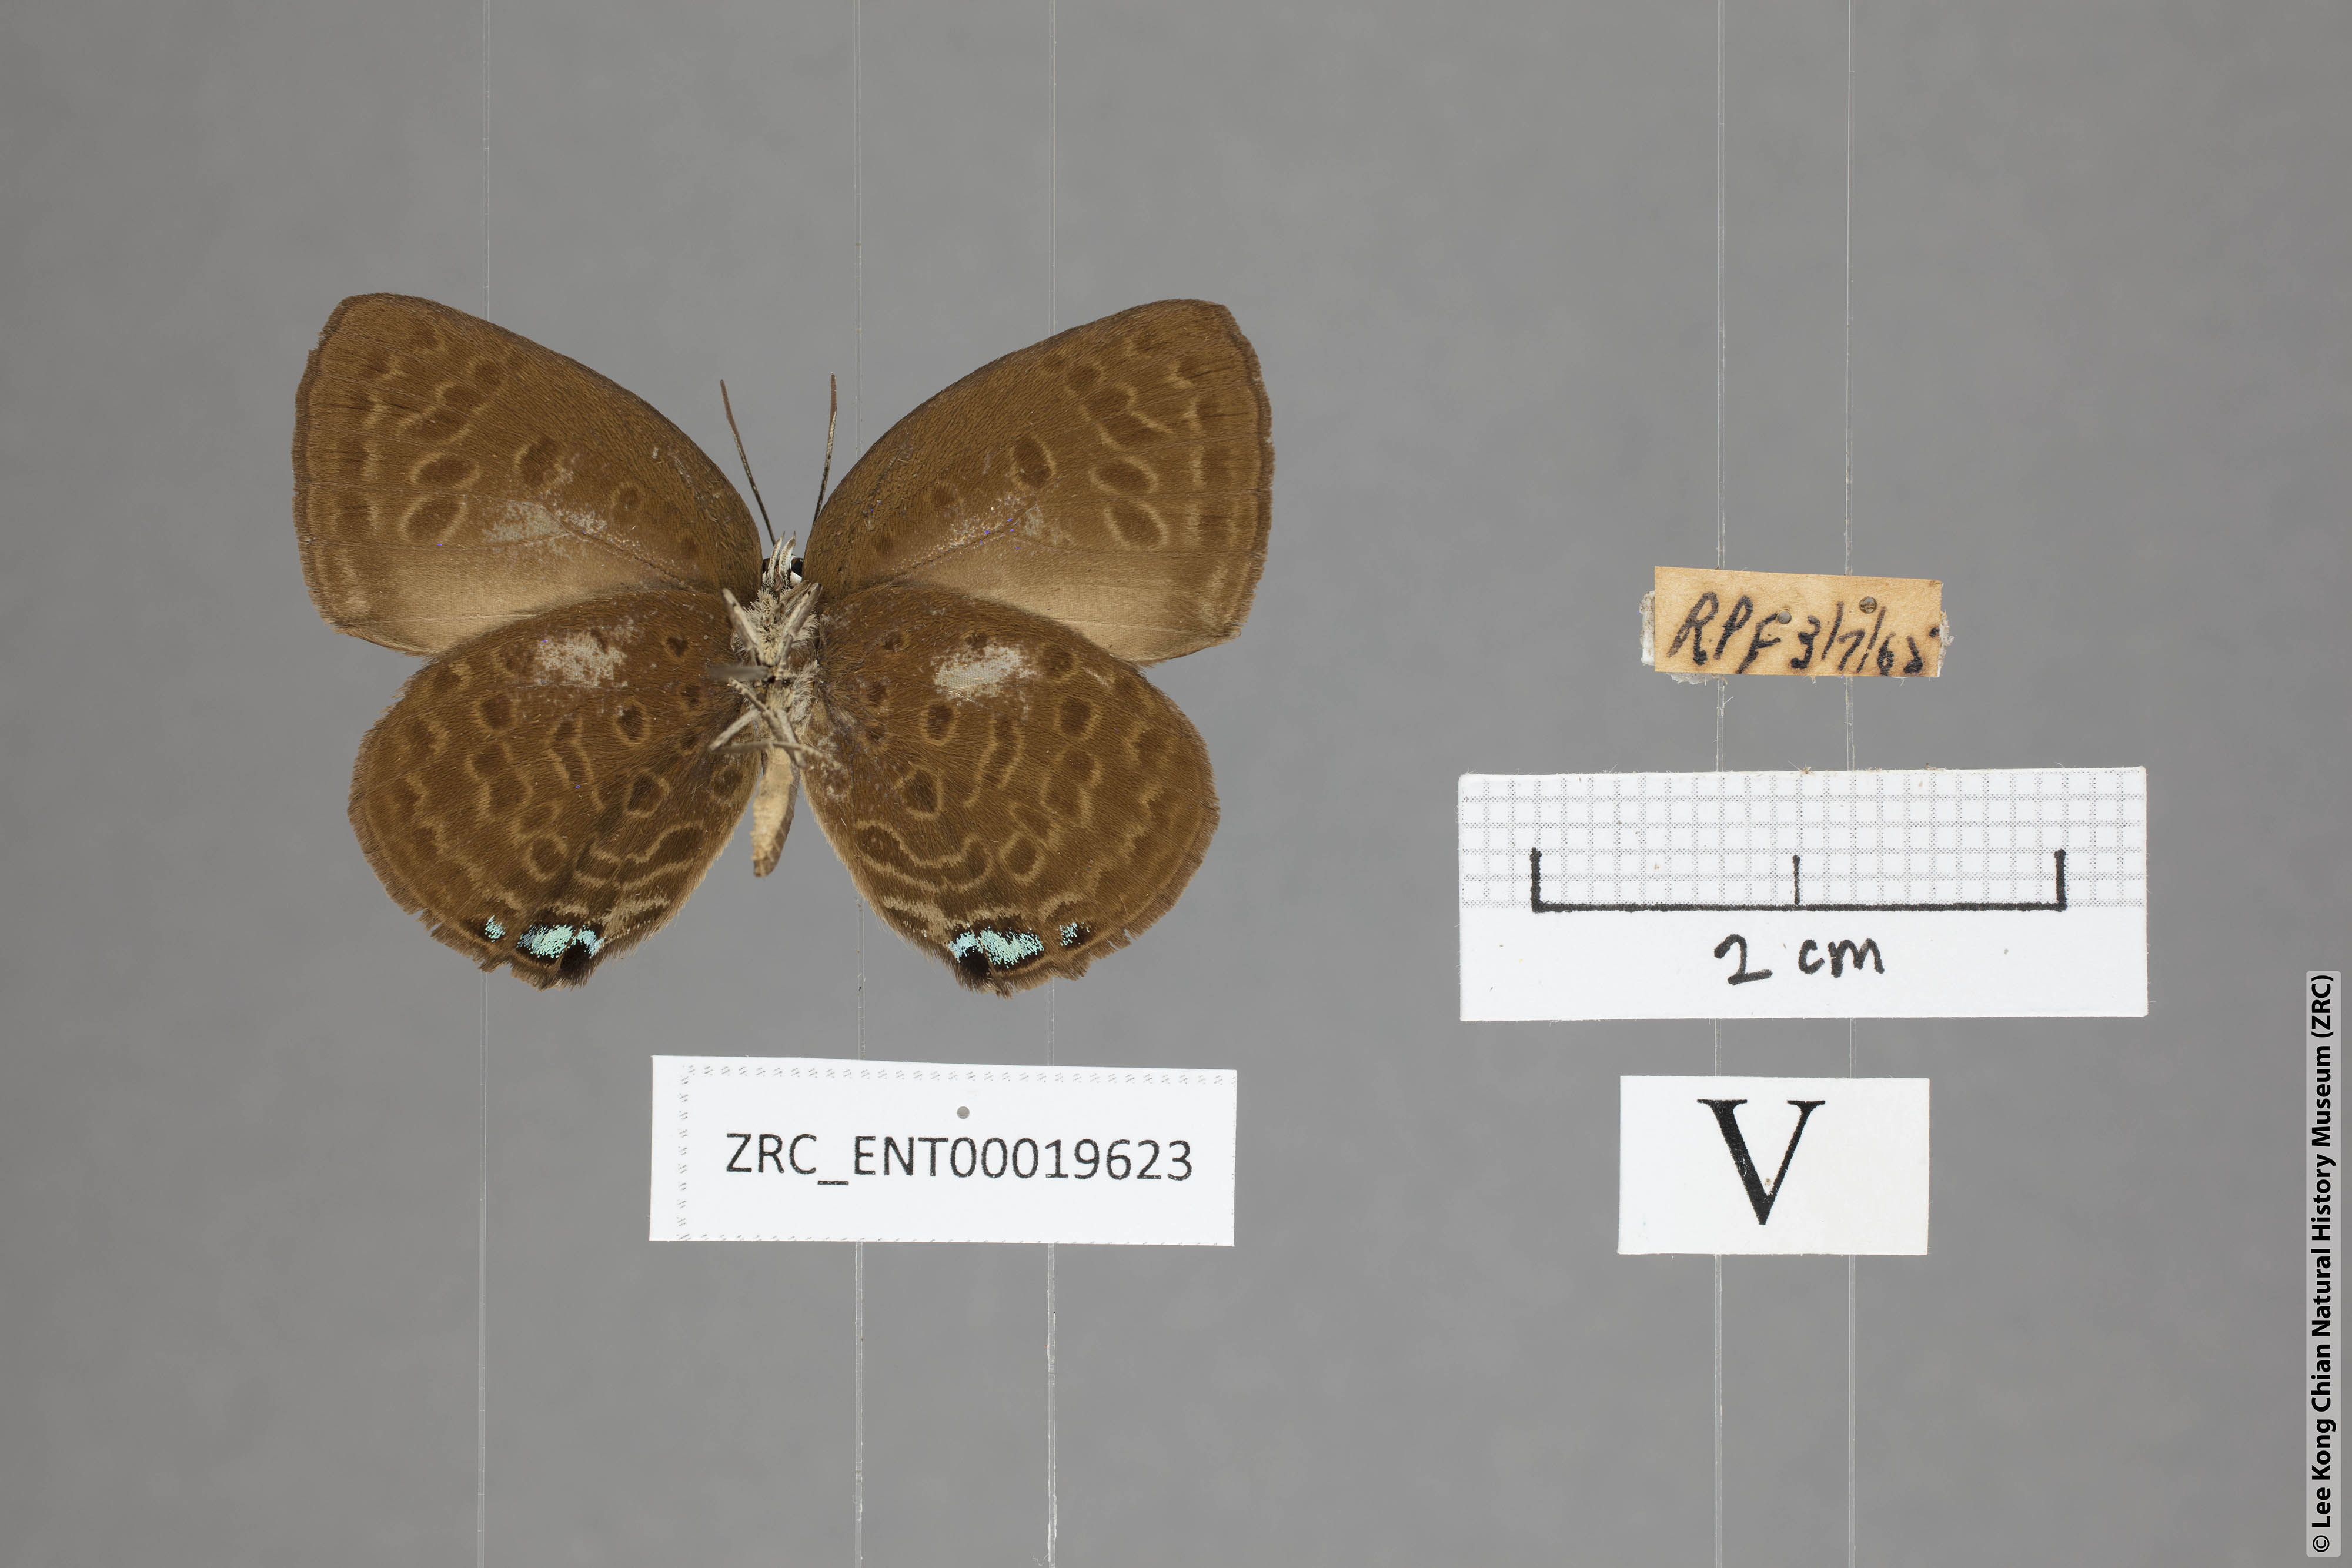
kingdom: Animalia
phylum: Arthropoda
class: Insecta
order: Lepidoptera
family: Lycaenidae
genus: Arhopala
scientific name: Arhopala major
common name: Major yellow oakblue
